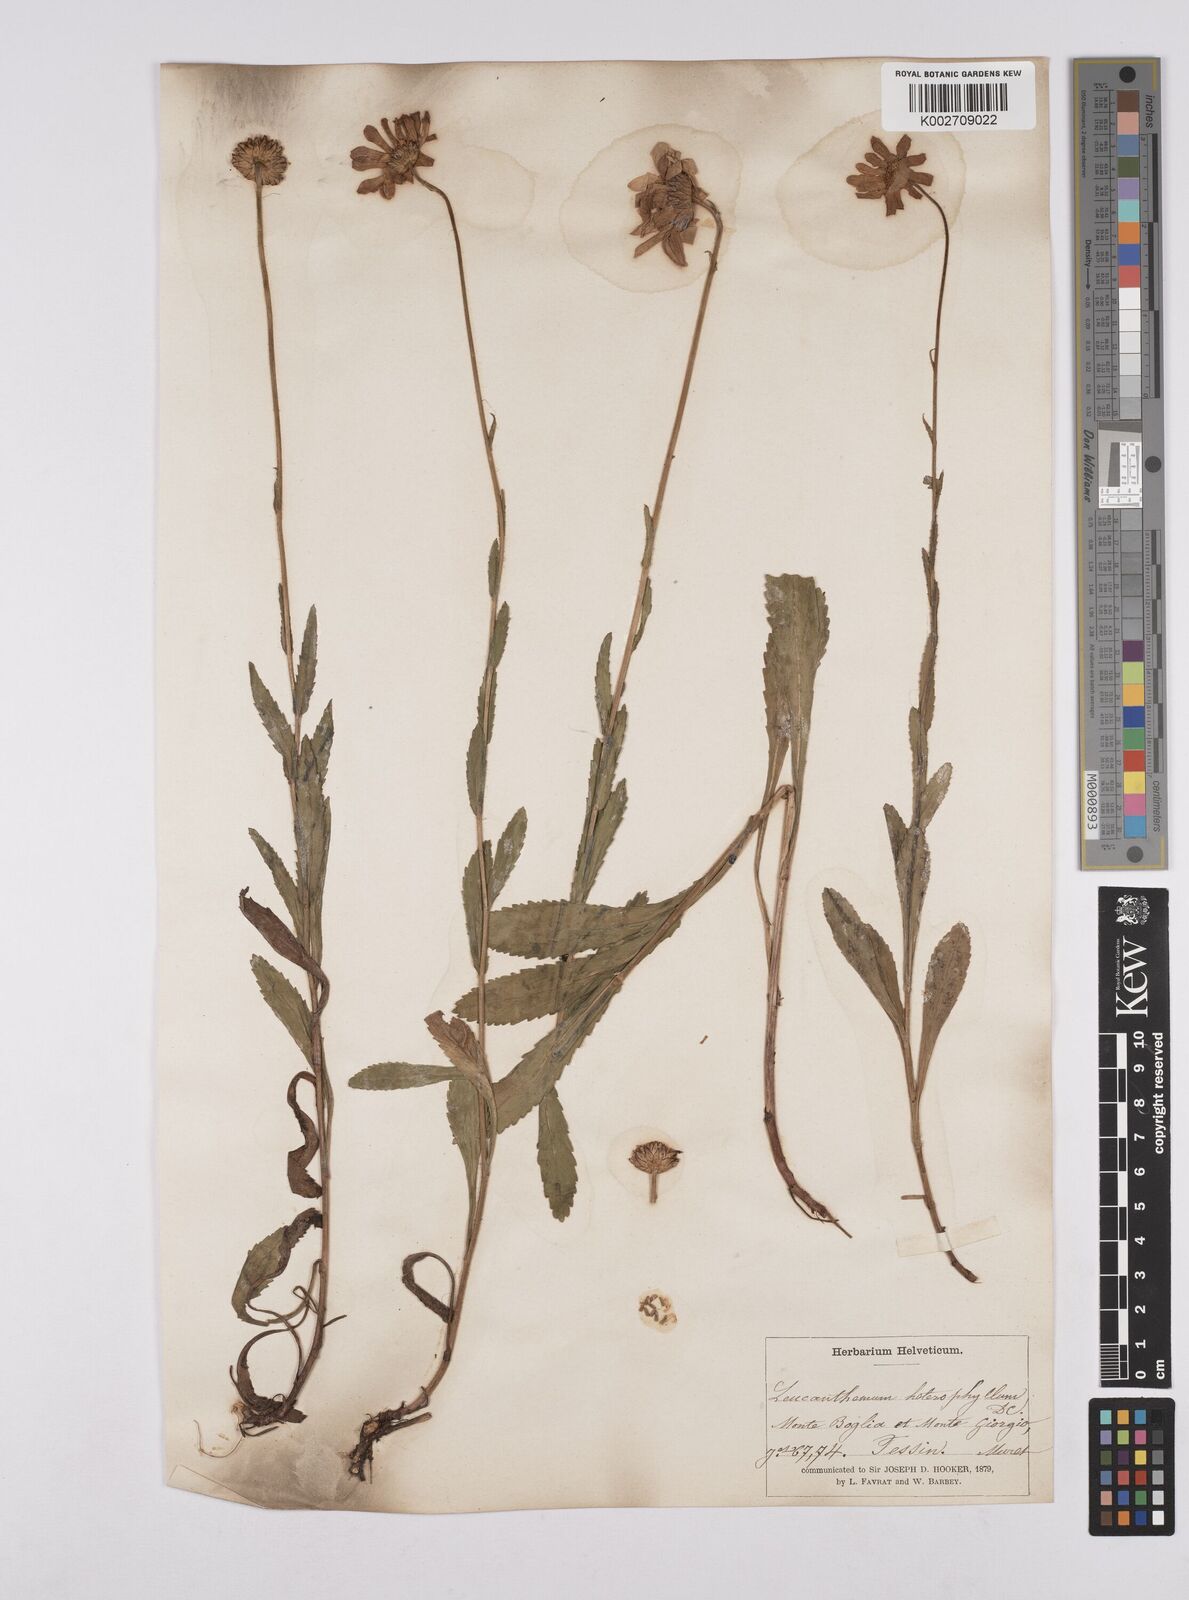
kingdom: Plantae
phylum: Tracheophyta
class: Magnoliopsida
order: Asterales
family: Asteraceae
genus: Leucanthemum
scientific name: Leucanthemum heterophyllum
